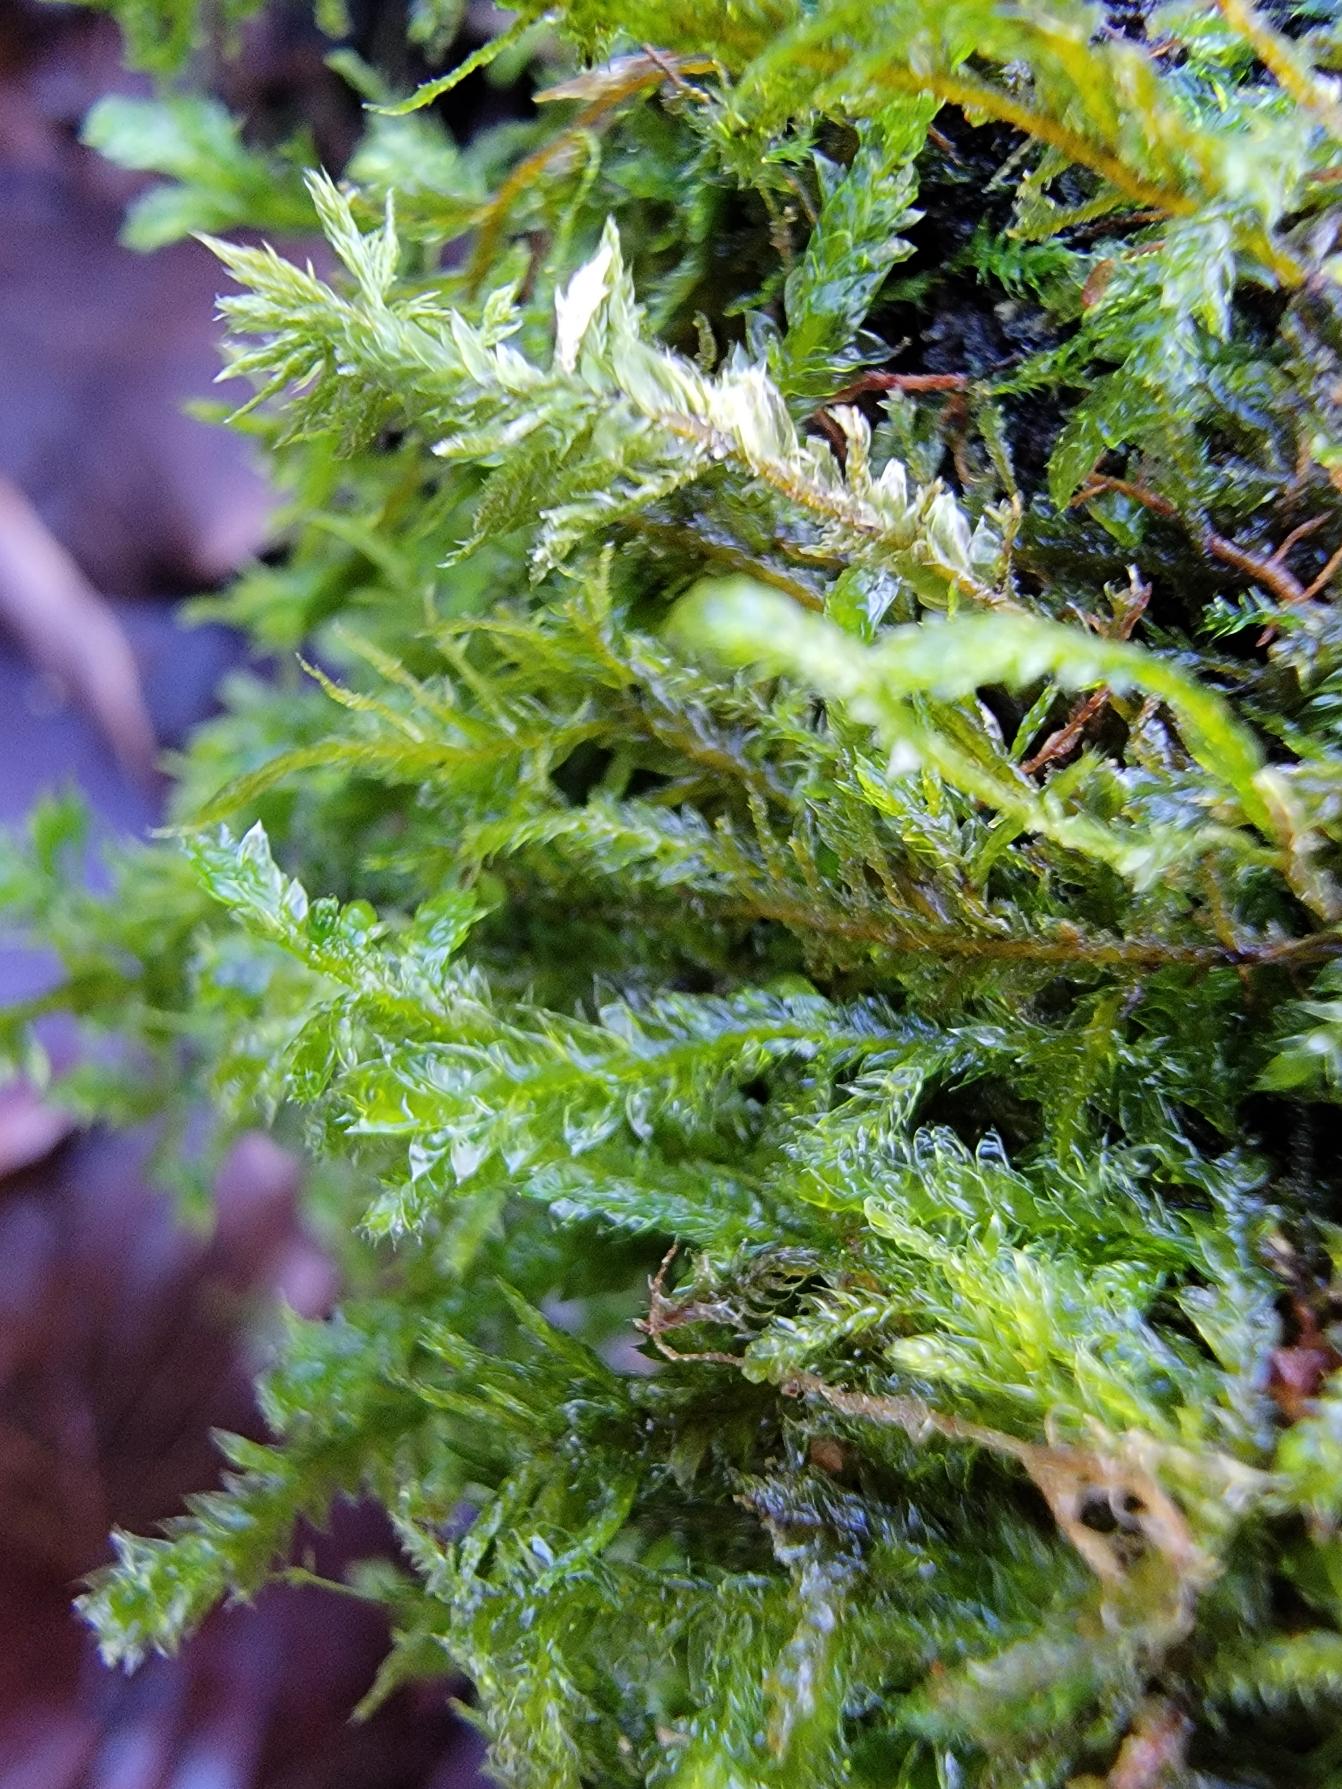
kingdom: Plantae
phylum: Bryophyta
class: Bryopsida
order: Hypnales
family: Neckeraceae
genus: Neckera
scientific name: Neckera pumila
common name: Lav fladmos
